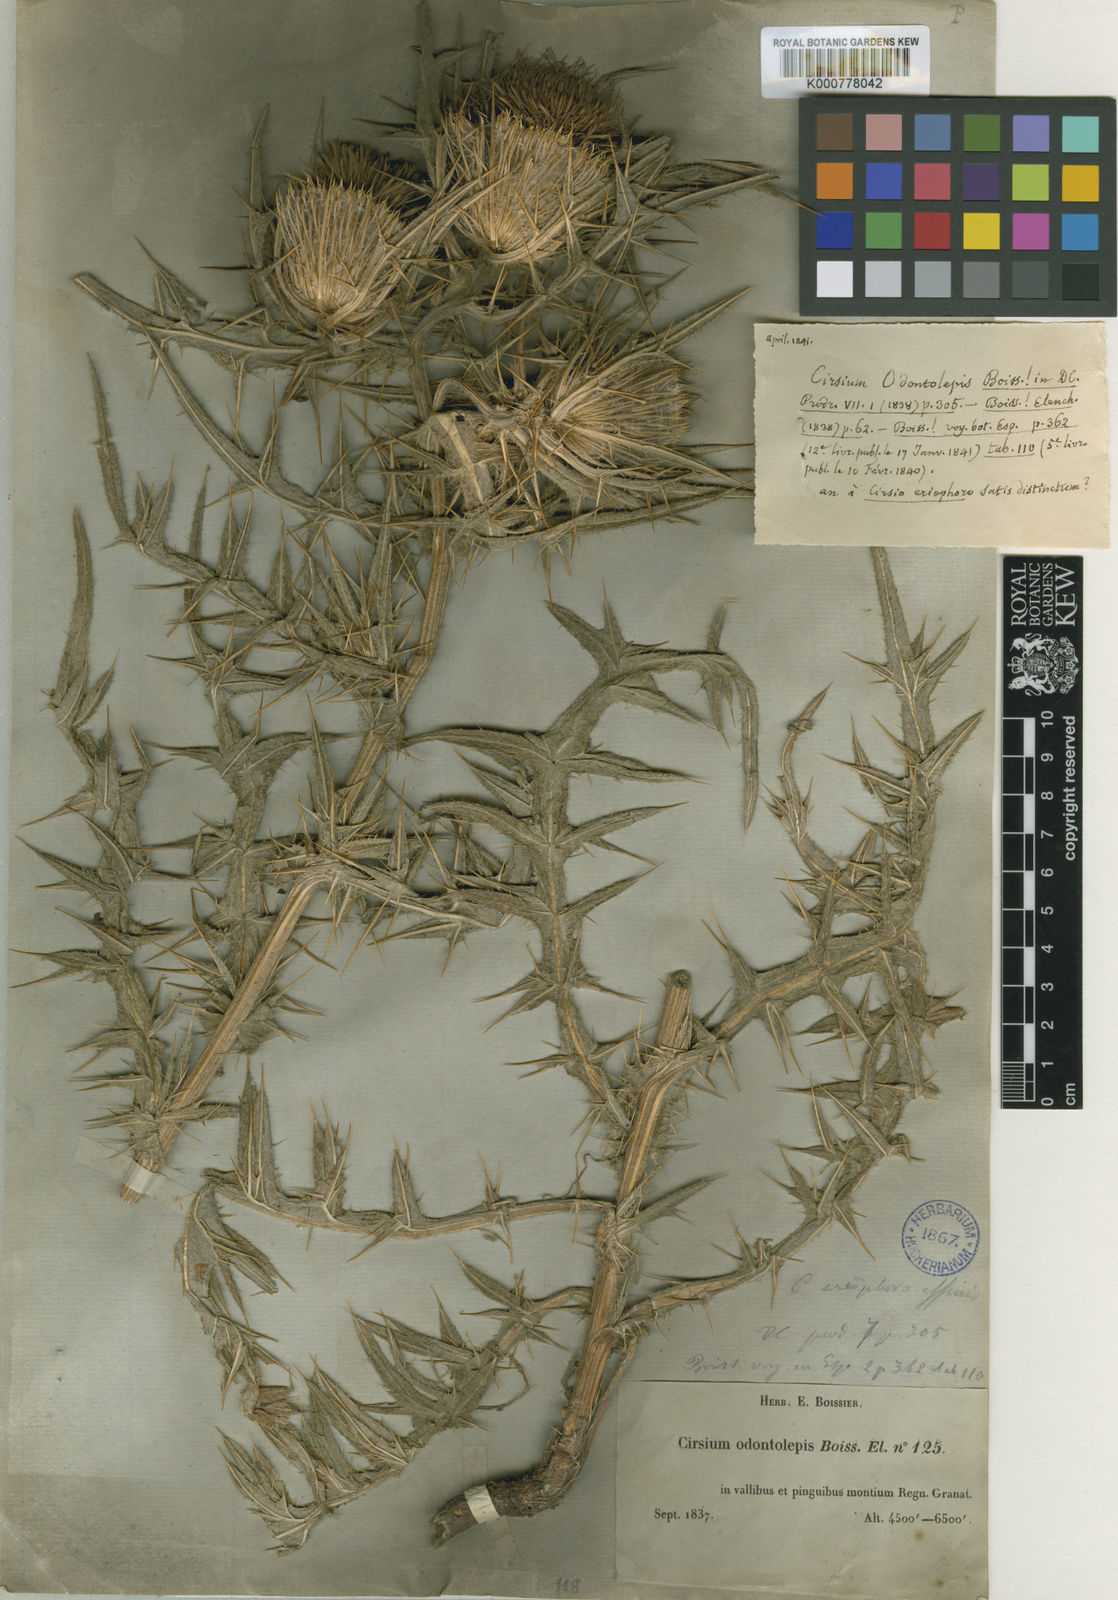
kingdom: Plantae
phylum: Tracheophyta
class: Magnoliopsida
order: Asterales
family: Asteraceae
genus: Lophiolepis
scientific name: Lophiolepis odontolepis
